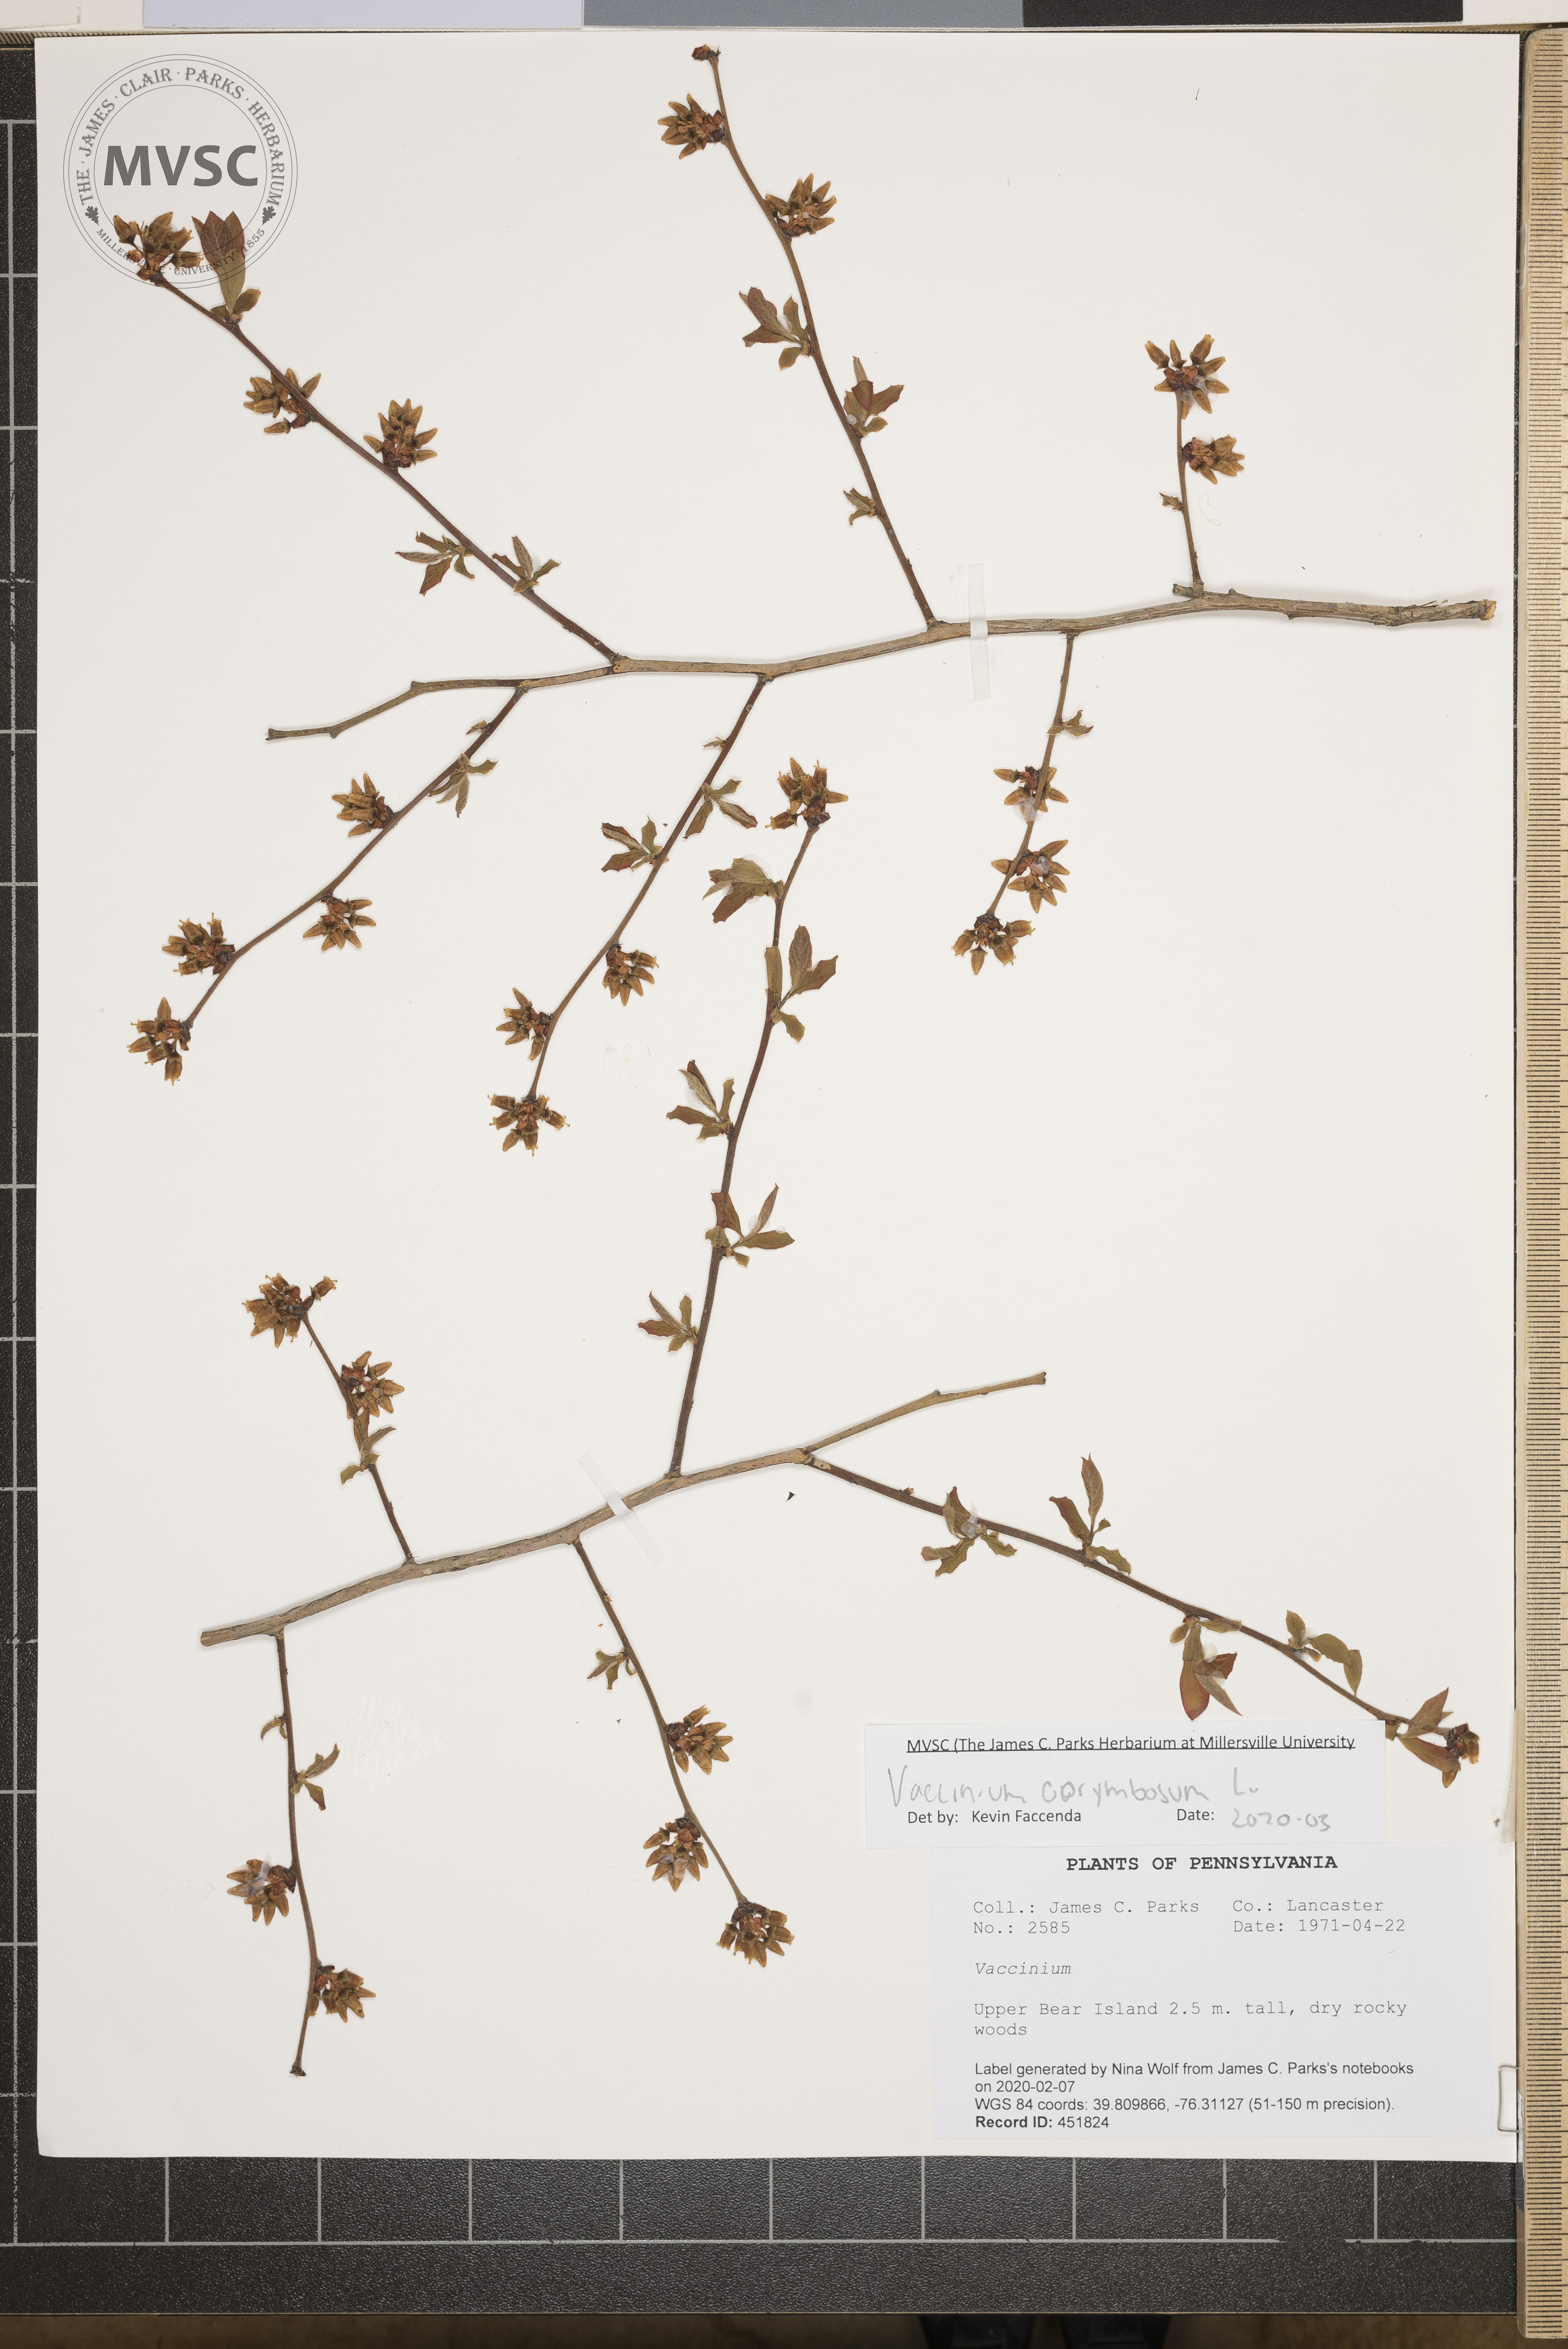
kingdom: Plantae
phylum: Tracheophyta
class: Magnoliopsida
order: Ericales
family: Ericaceae
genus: Vaccinium
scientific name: Vaccinium corymbosum
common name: Blueberry
